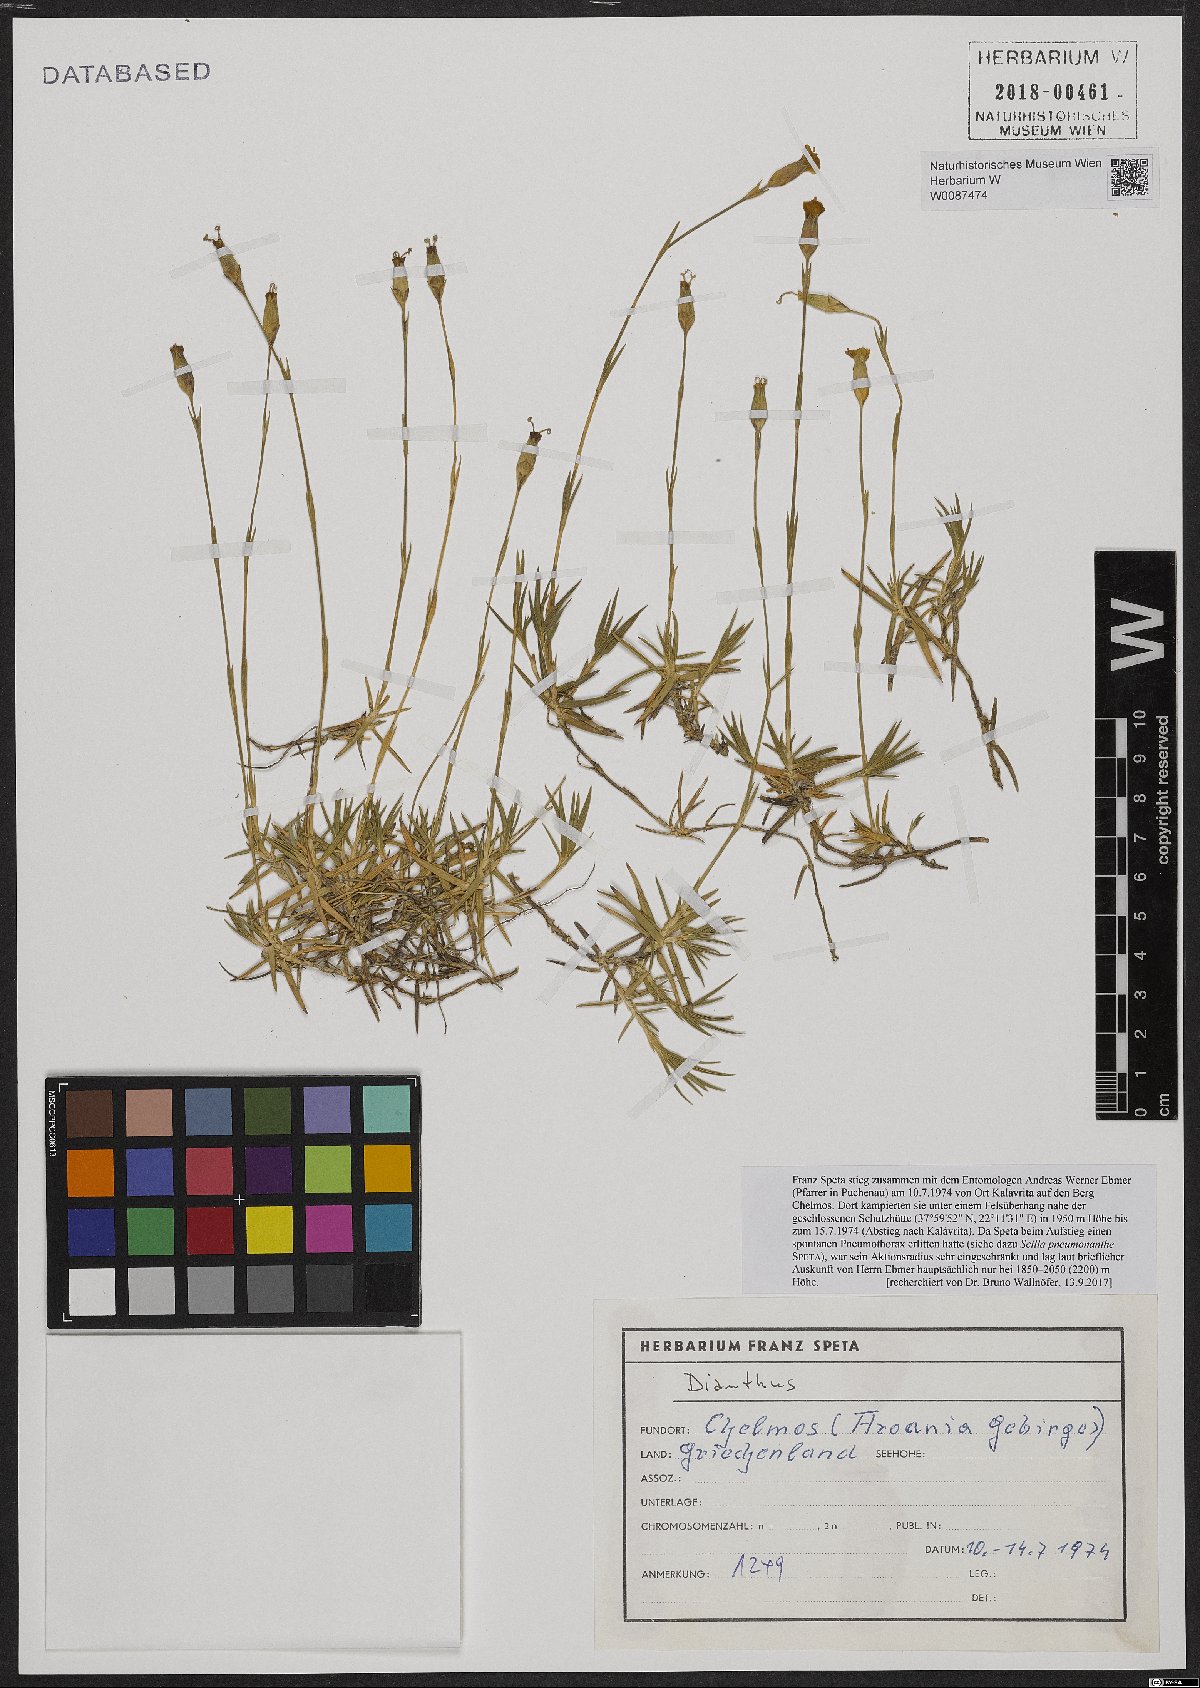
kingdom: Plantae
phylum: Tracheophyta
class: Magnoliopsida
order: Caryophyllales
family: Caryophyllaceae
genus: Dianthus
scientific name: Dianthus
